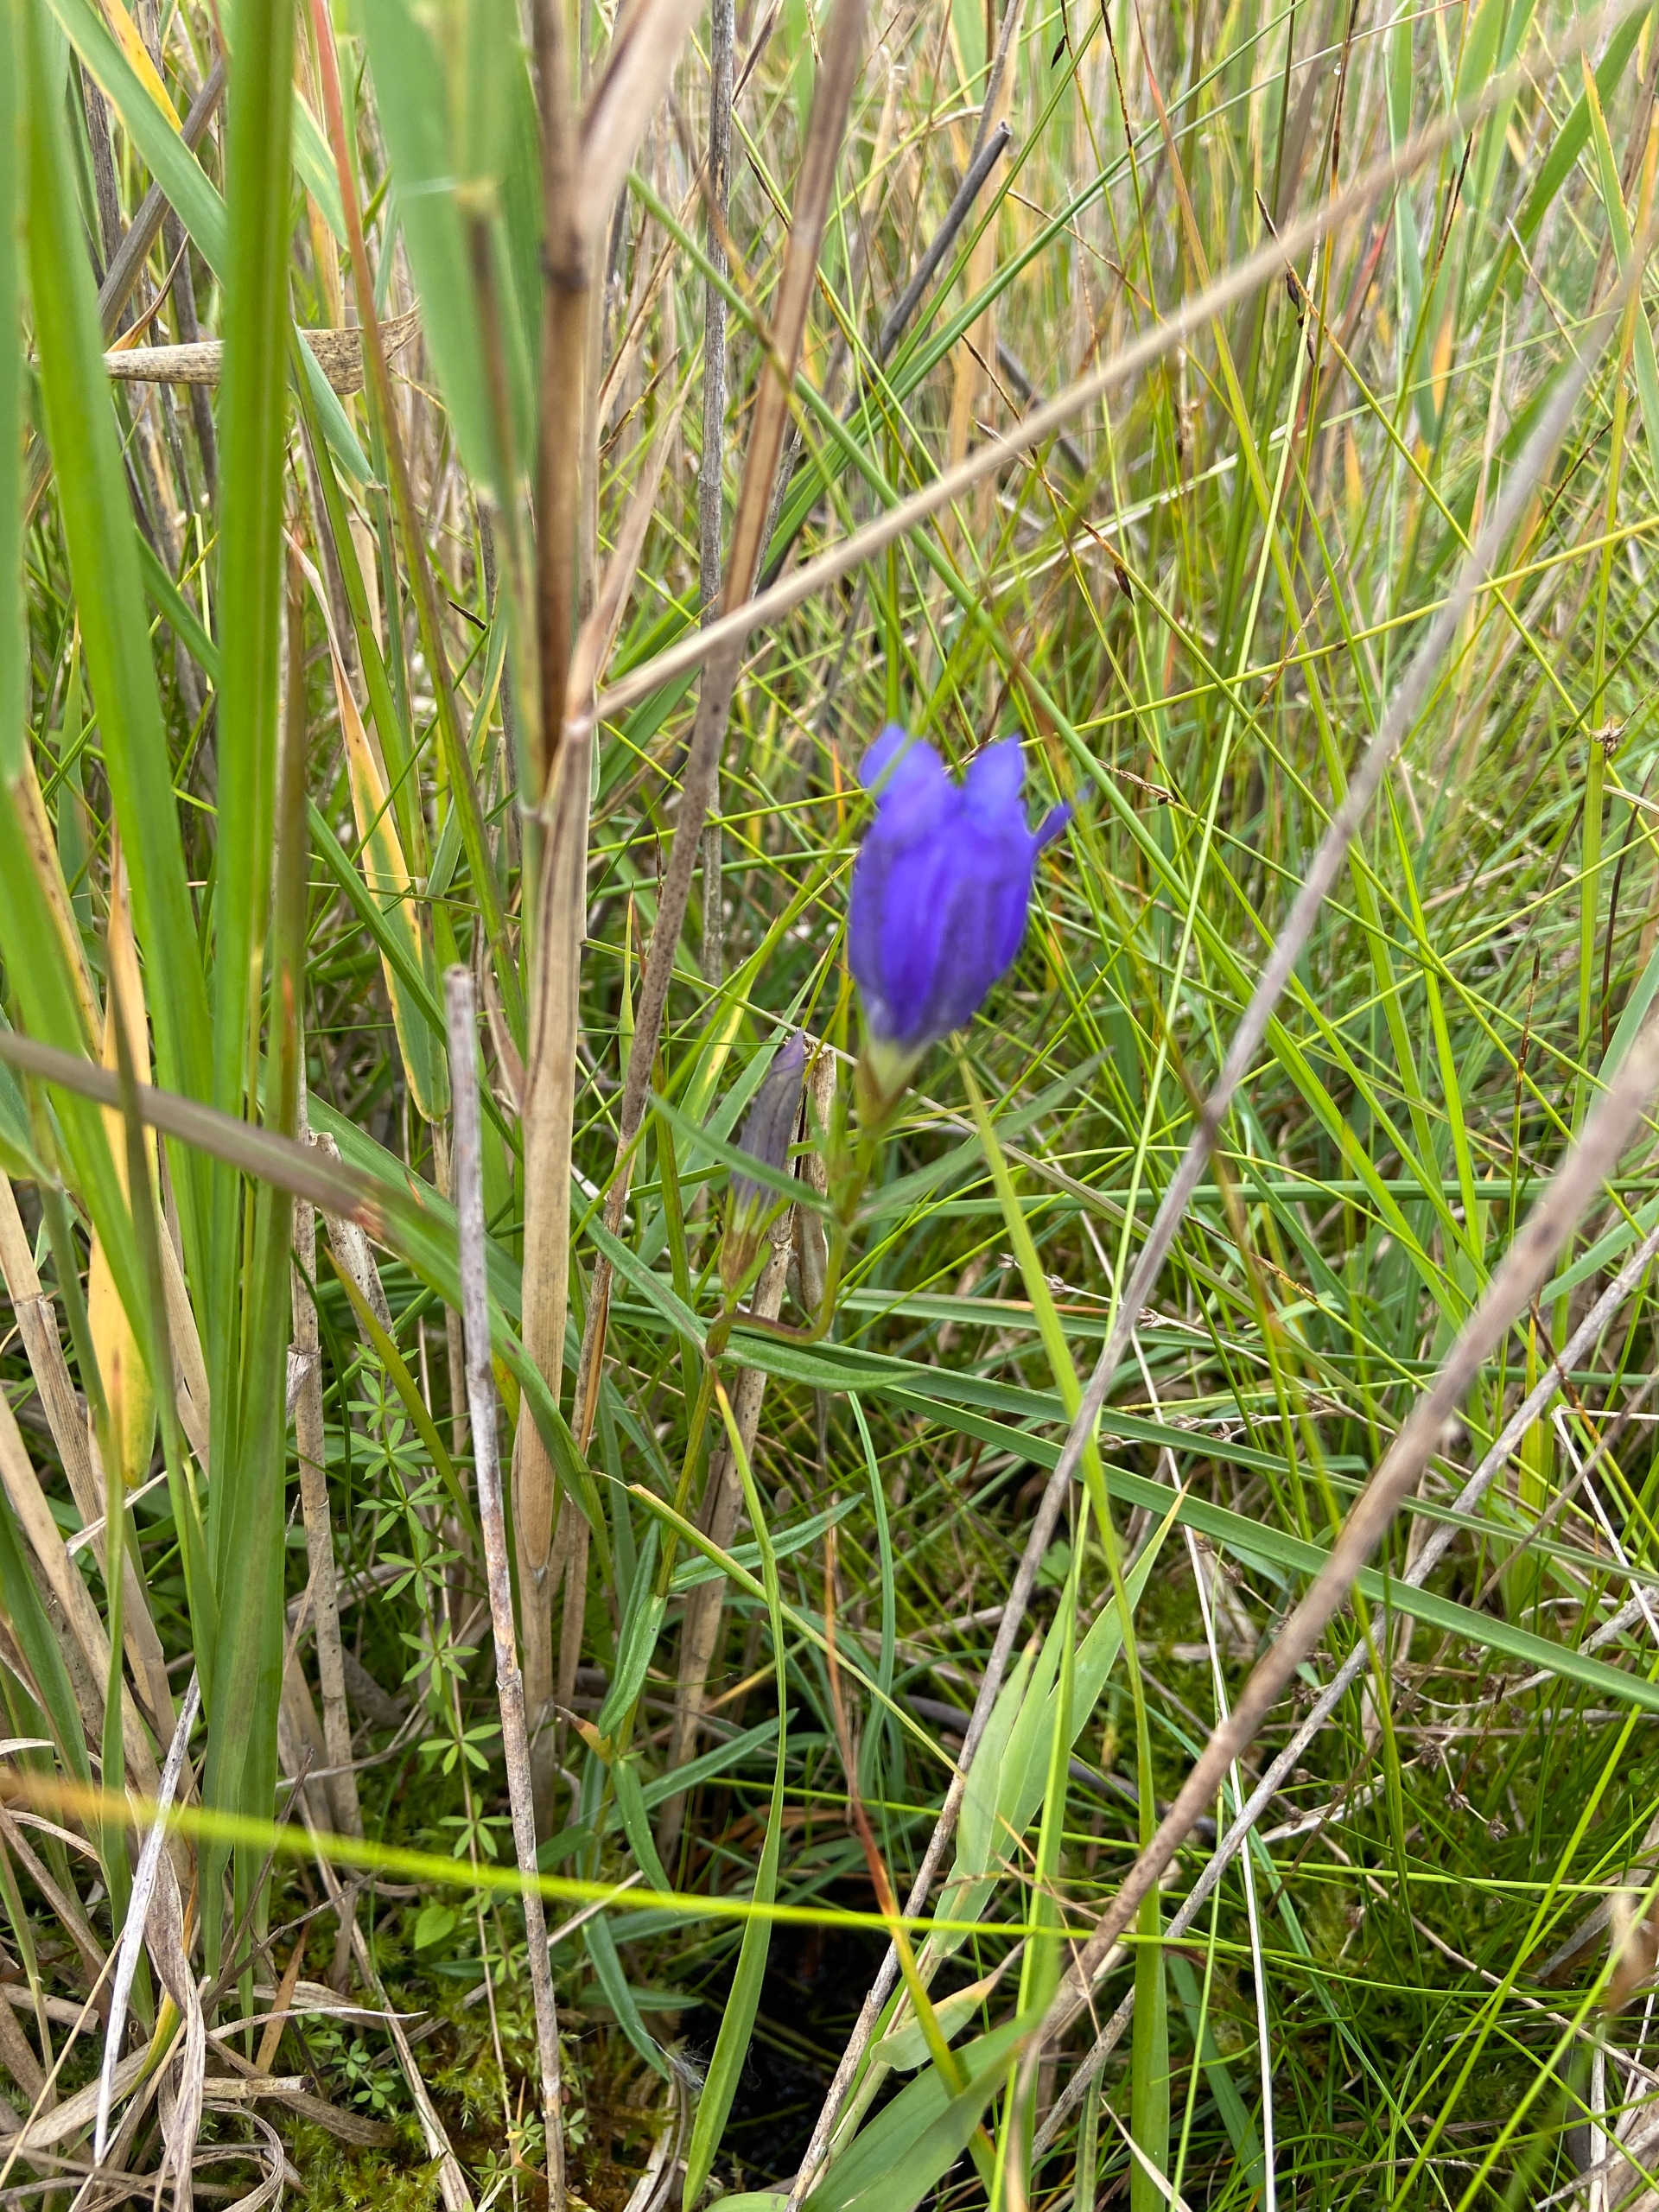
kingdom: Plantae
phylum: Tracheophyta
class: Magnoliopsida
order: Gentianales
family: Gentianaceae
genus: Gentiana
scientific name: Gentiana pneumonanthe
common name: Klokke-ensian
